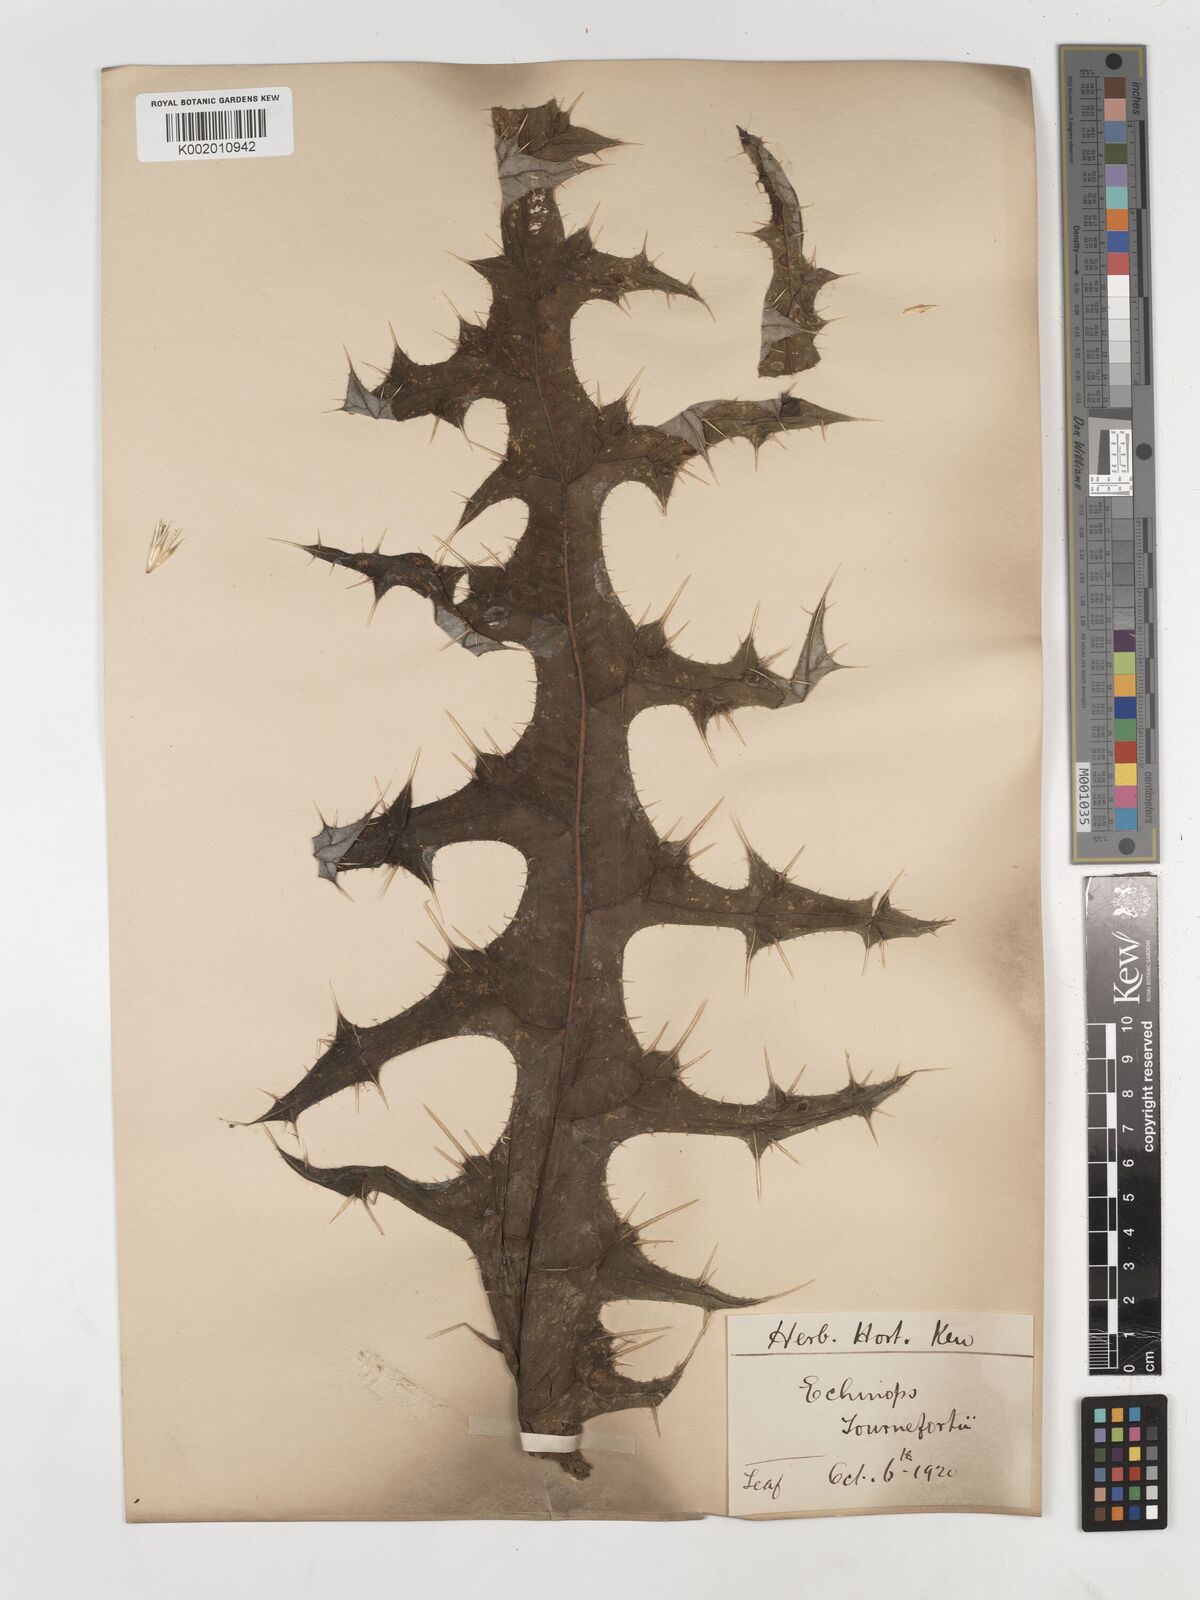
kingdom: Plantae
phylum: Tracheophyta
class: Magnoliopsida
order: Asterales
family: Asteraceae
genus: Echinops
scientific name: Echinops tournefortii
